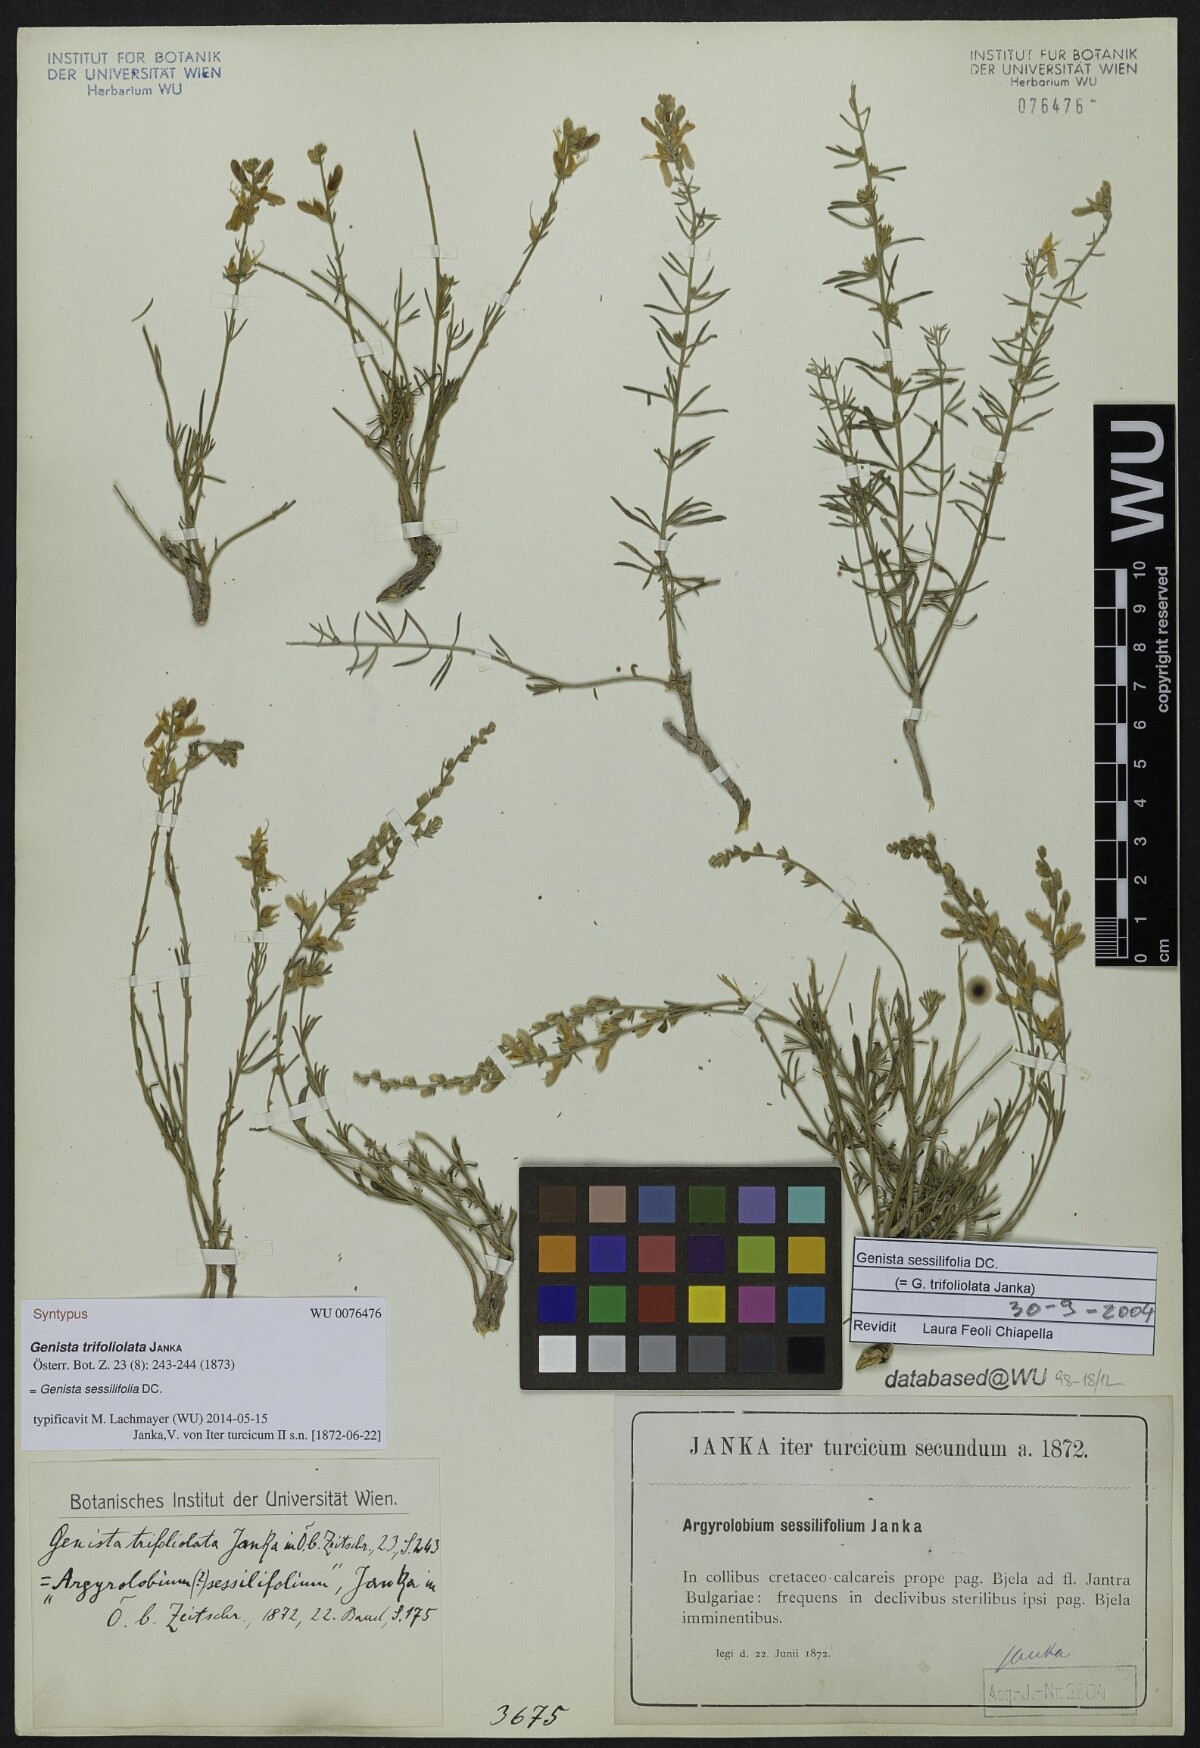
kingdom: Plantae
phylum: Tracheophyta
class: Magnoliopsida
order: Fabales
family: Fabaceae
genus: Genista
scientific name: Genista sessilifolia
